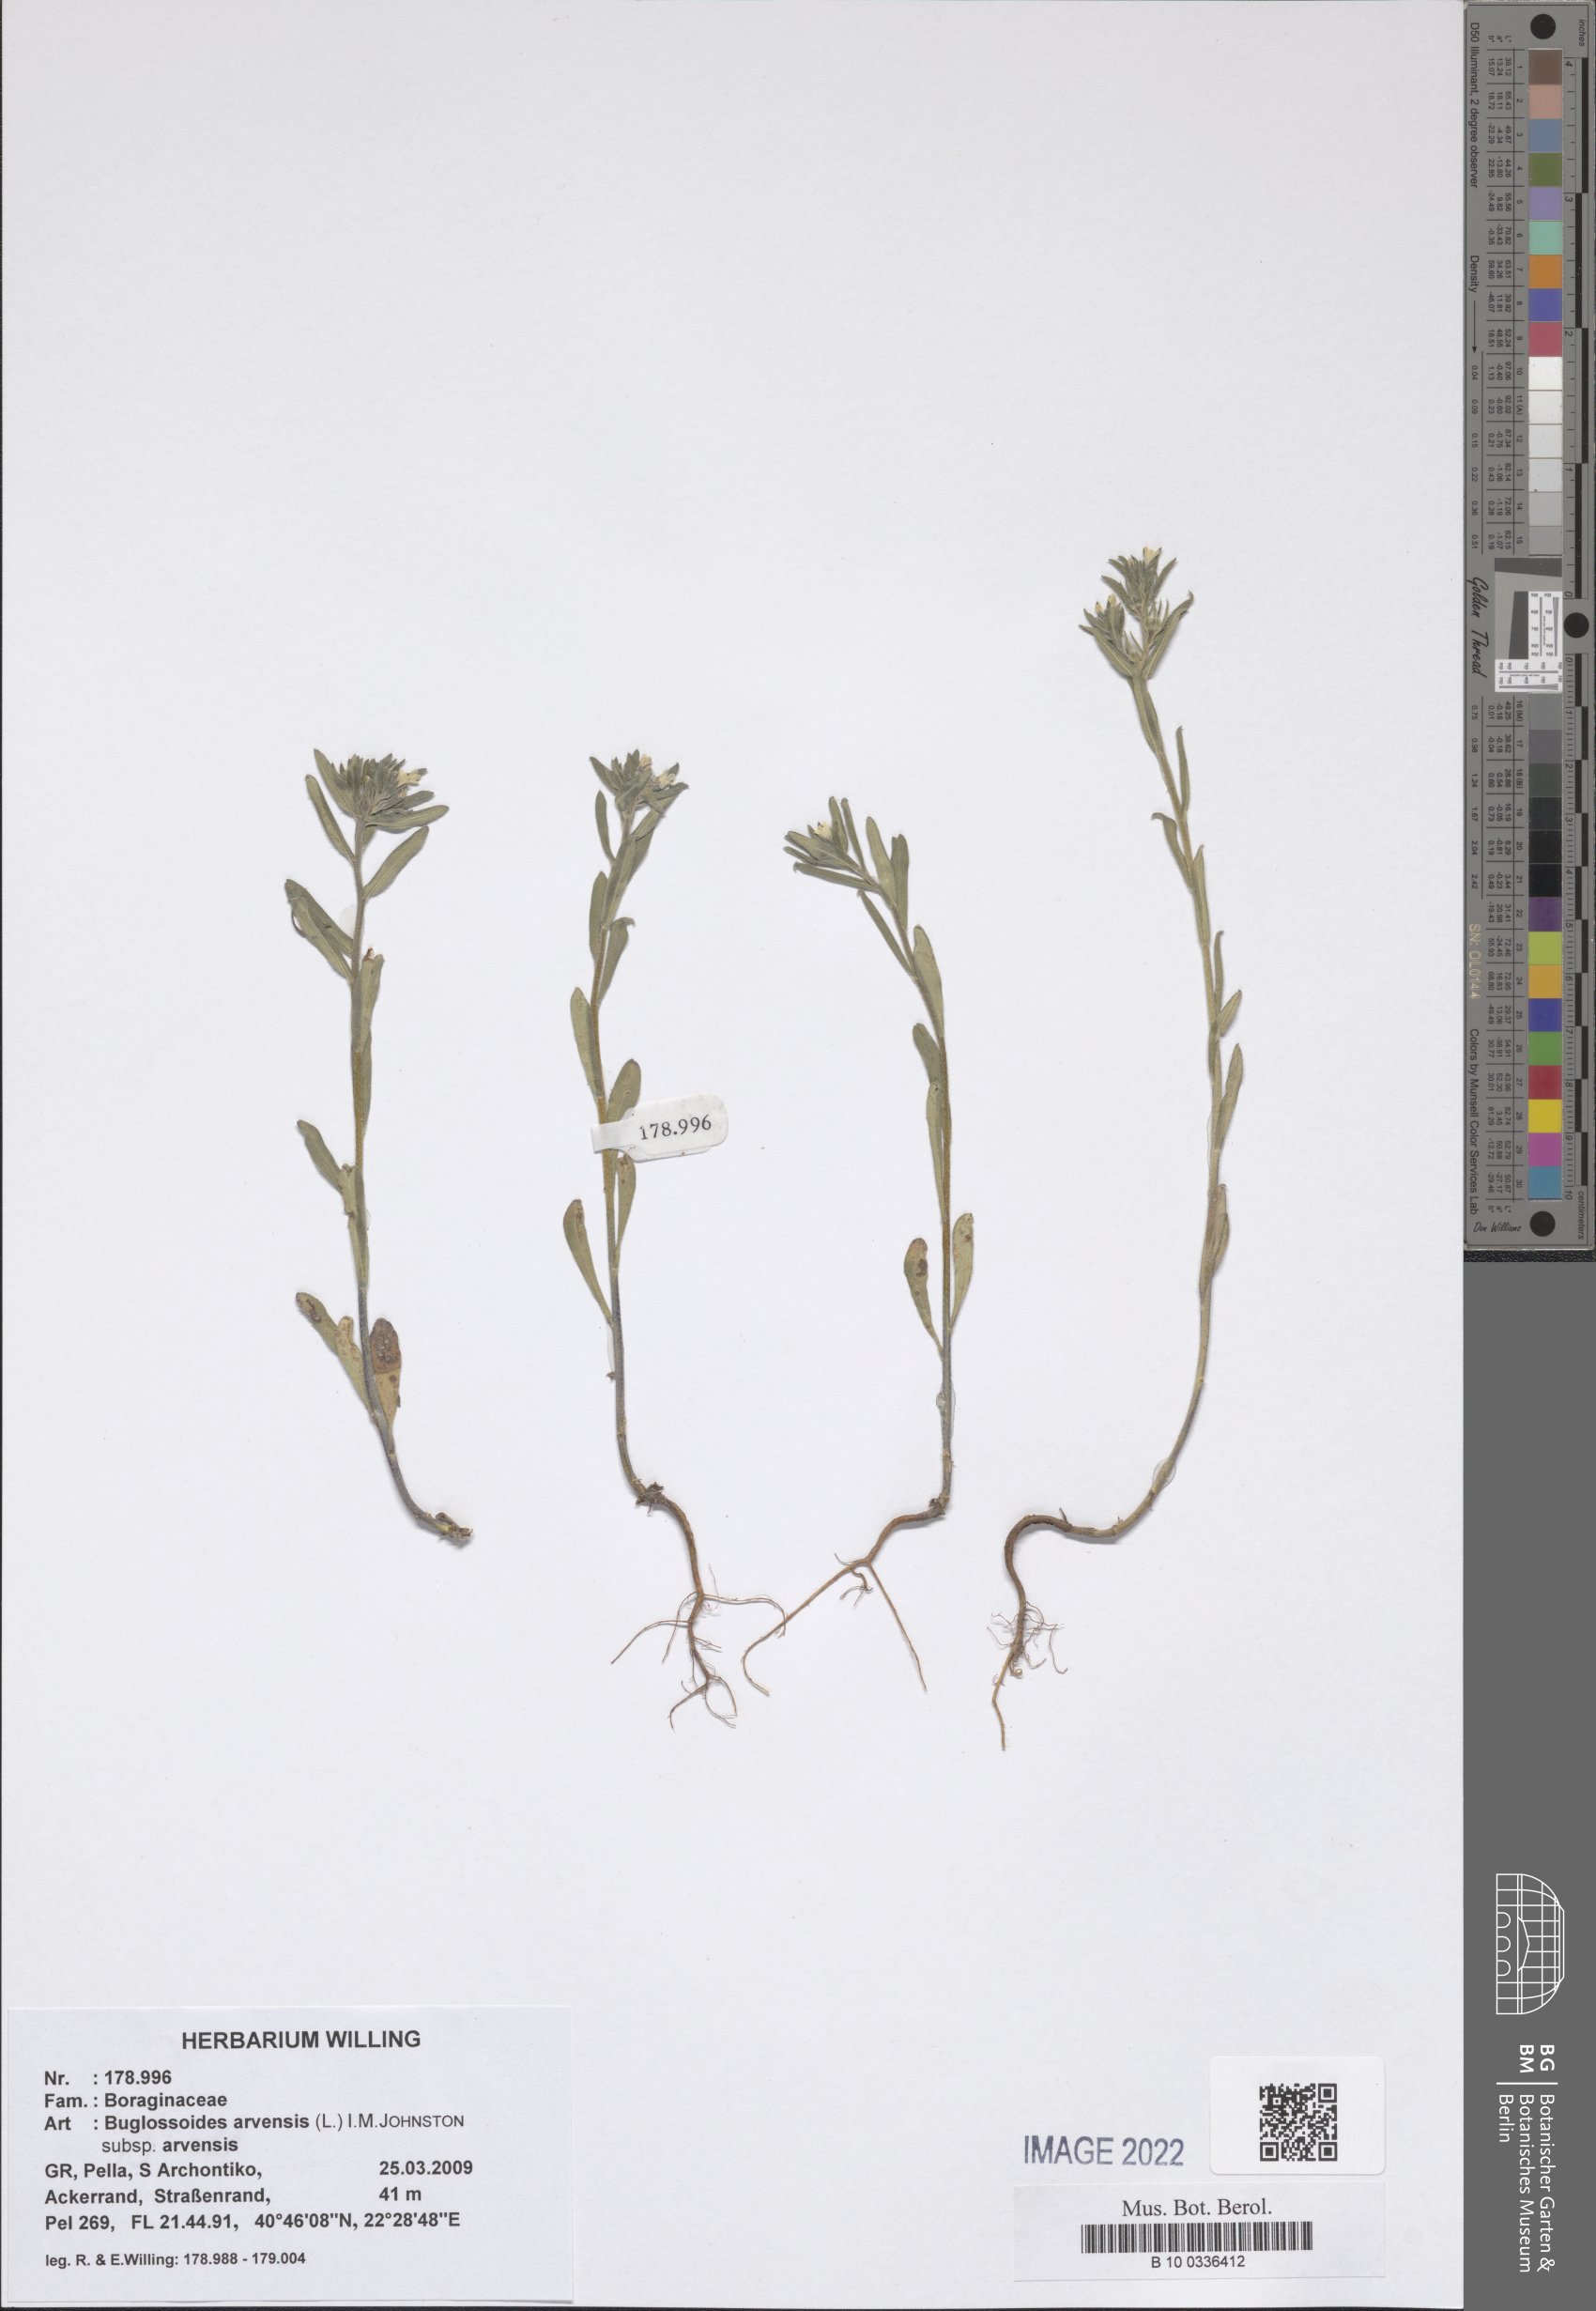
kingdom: Plantae
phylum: Tracheophyta
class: Magnoliopsida
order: Boraginales
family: Boraginaceae
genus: Buglossoides
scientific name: Buglossoides arvensis
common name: Corn gromwell
